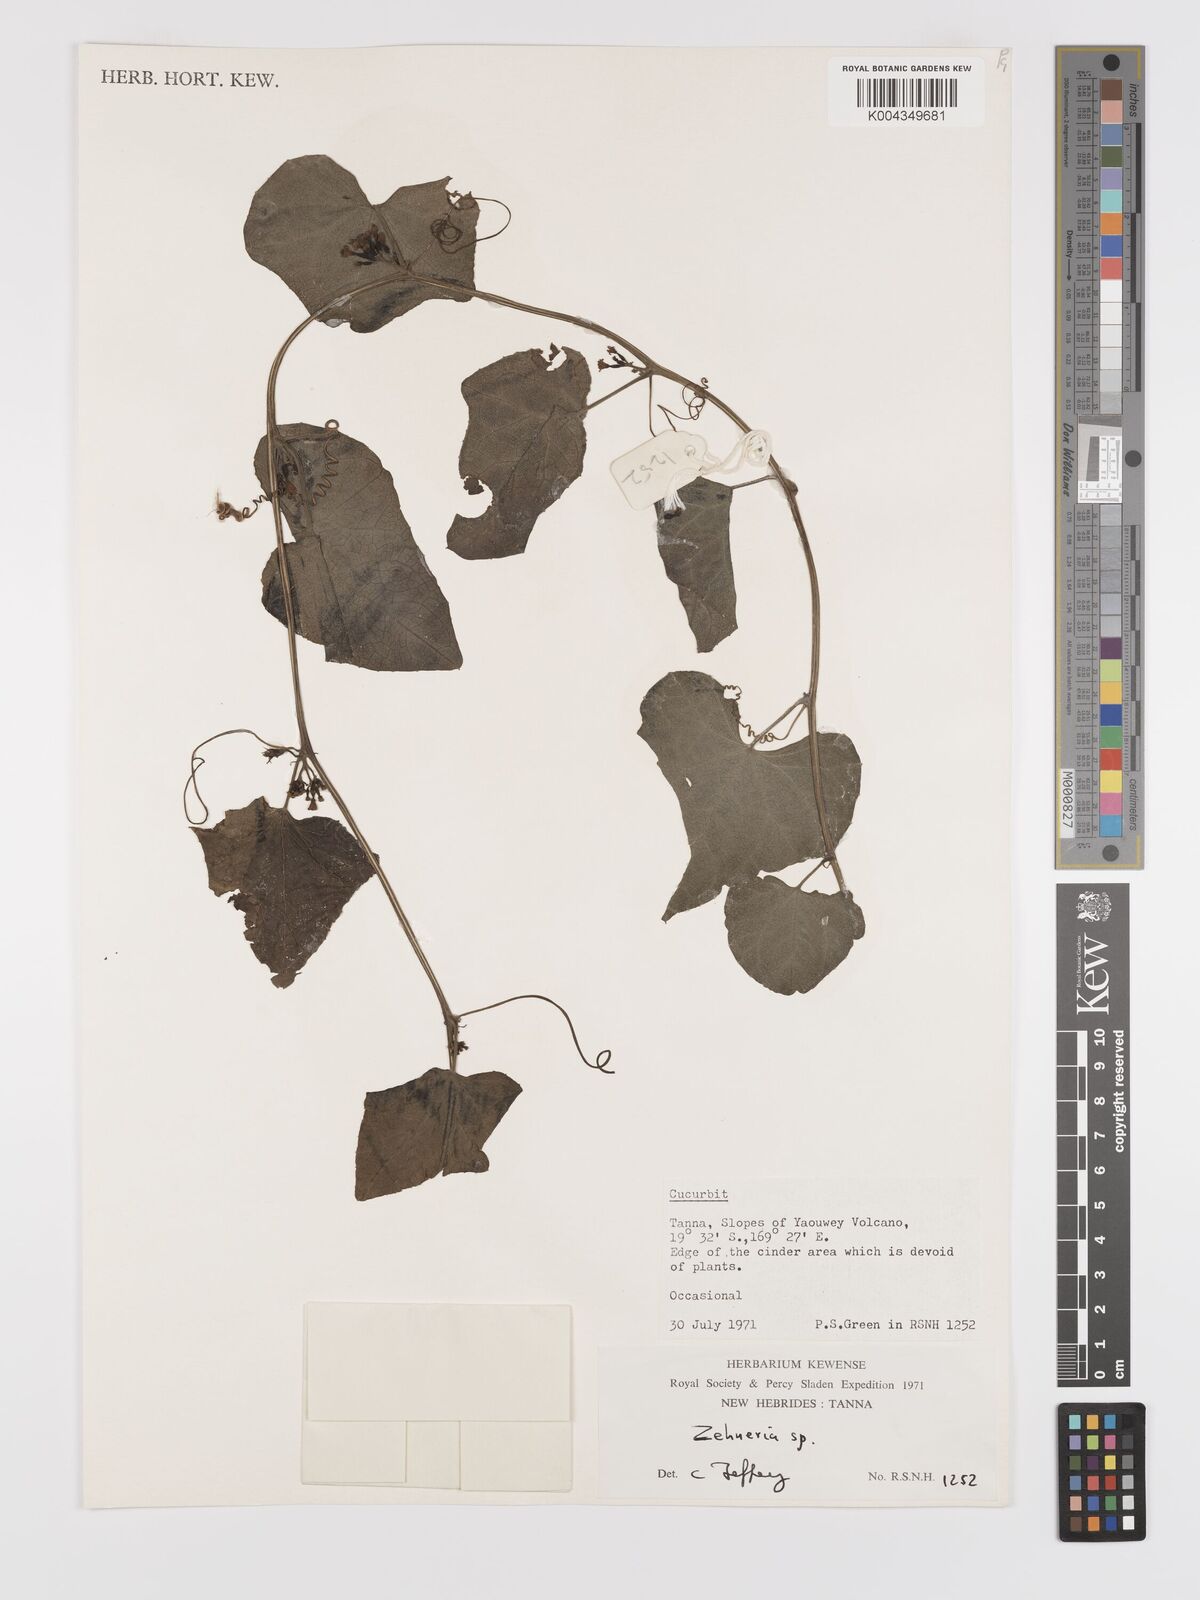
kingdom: Plantae
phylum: Tracheophyta
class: Magnoliopsida
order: Cucurbitales
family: Cucurbitaceae
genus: Zehneria
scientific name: Zehneria mucronata
